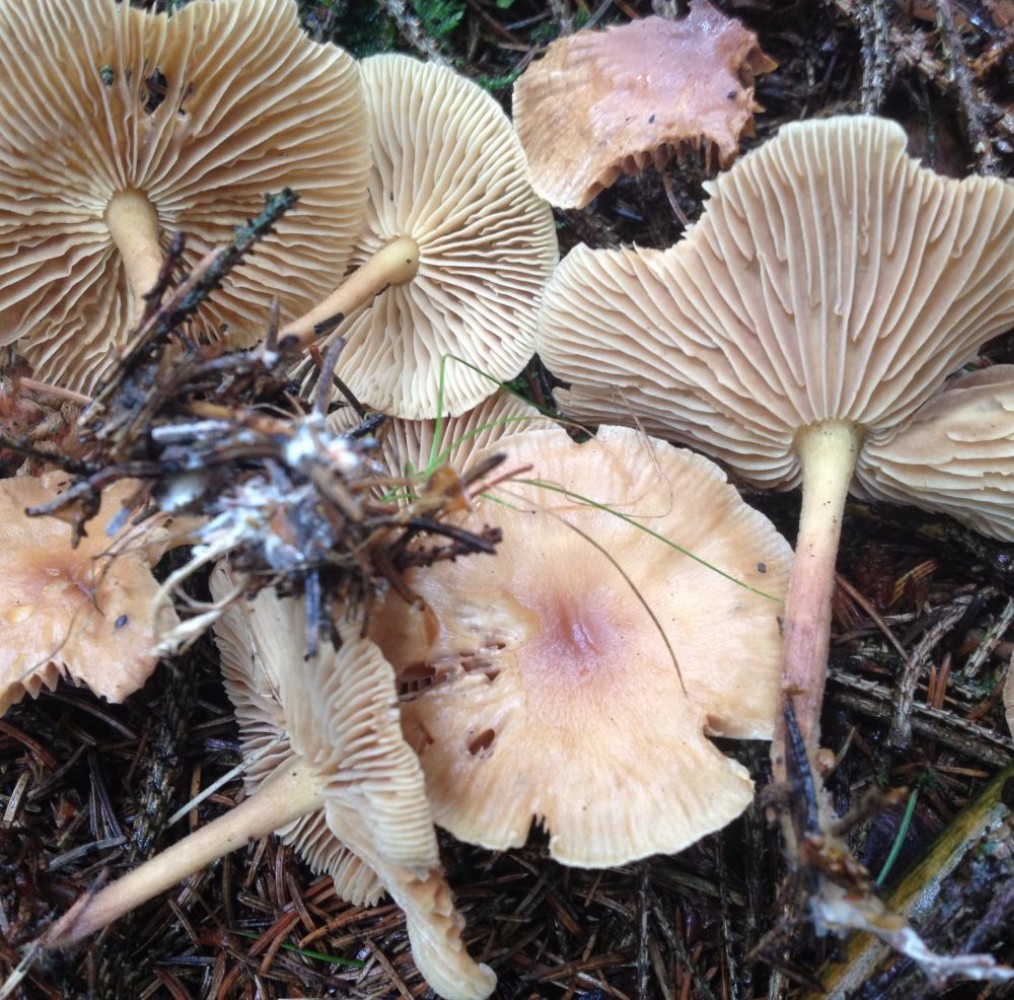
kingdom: Fungi
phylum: Basidiomycota
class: Agaricomycetes
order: Agaricales
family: Omphalotaceae
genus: Collybiopsis
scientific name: Collybiopsis peronata
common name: bestøvlet fladhat
